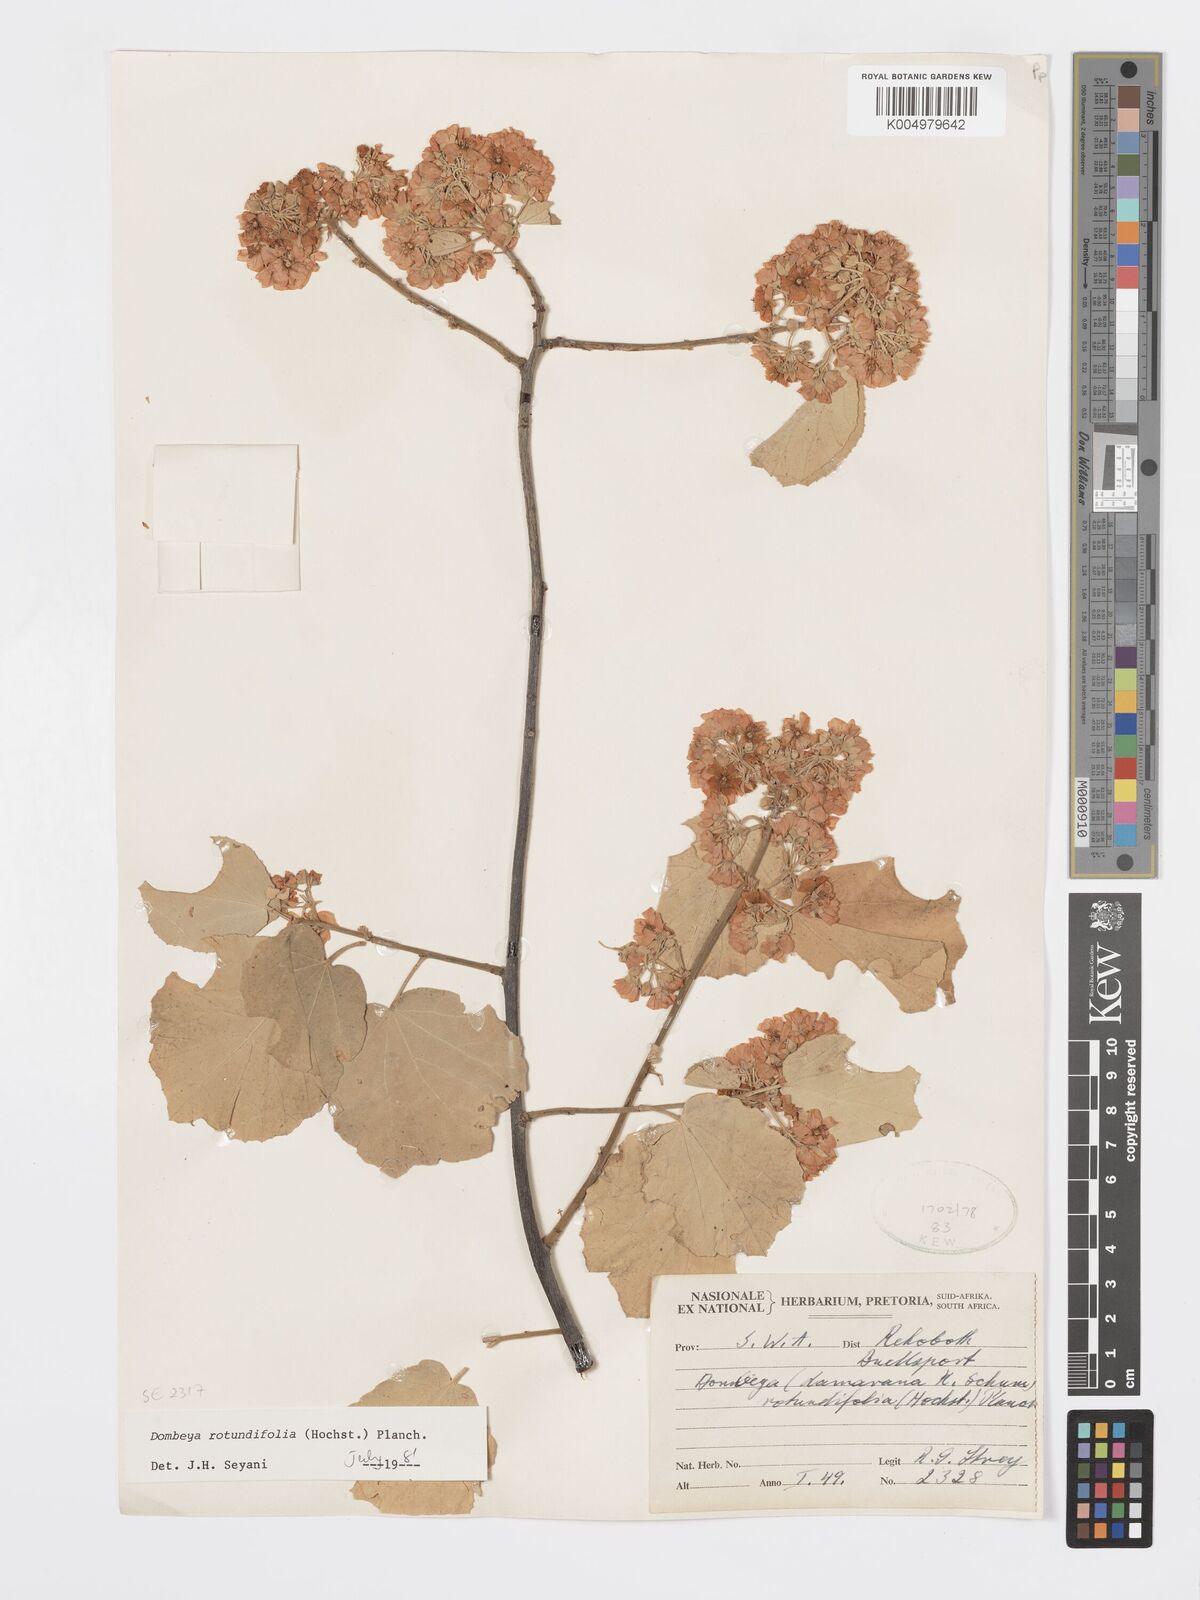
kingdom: Plantae
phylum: Tracheophyta
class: Magnoliopsida
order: Malvales
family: Malvaceae
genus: Dombeya
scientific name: Dombeya rotundifolia
